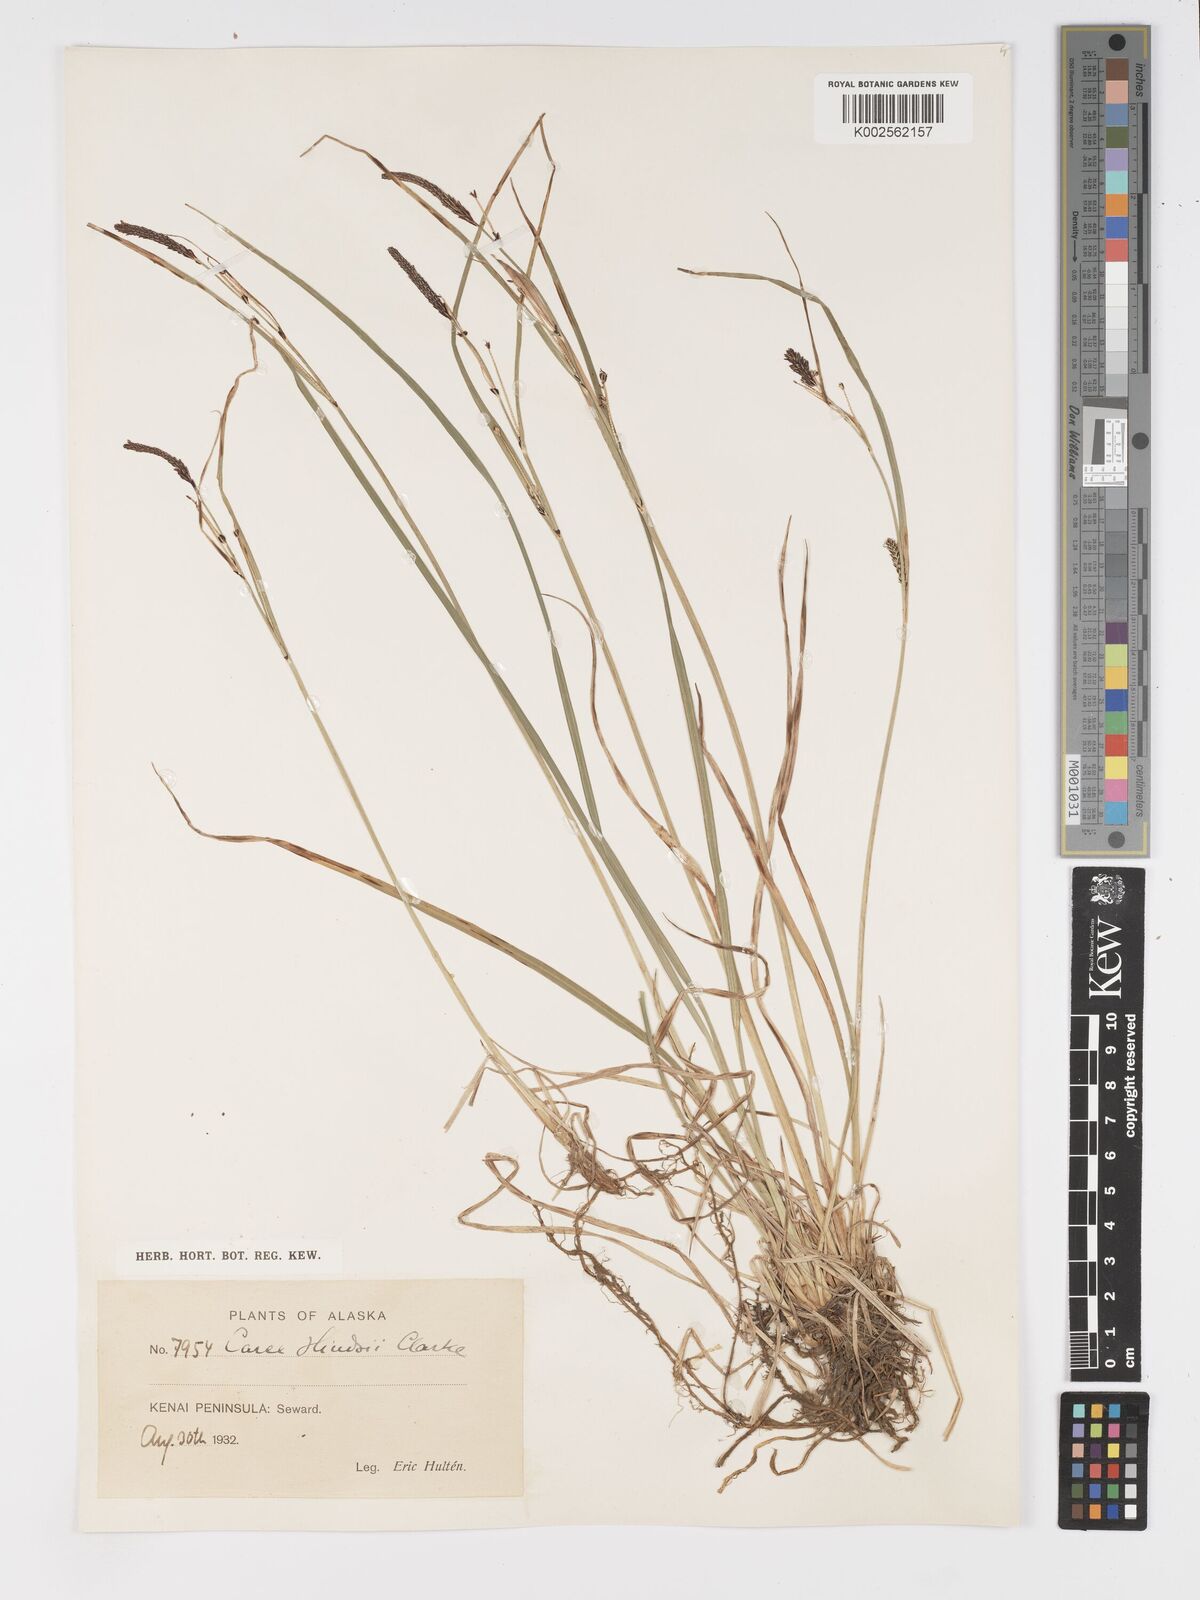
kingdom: Plantae
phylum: Tracheophyta
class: Liliopsida
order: Poales
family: Cyperaceae
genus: Carex
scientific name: Carex kelloggii
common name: Kellogg's sedge
